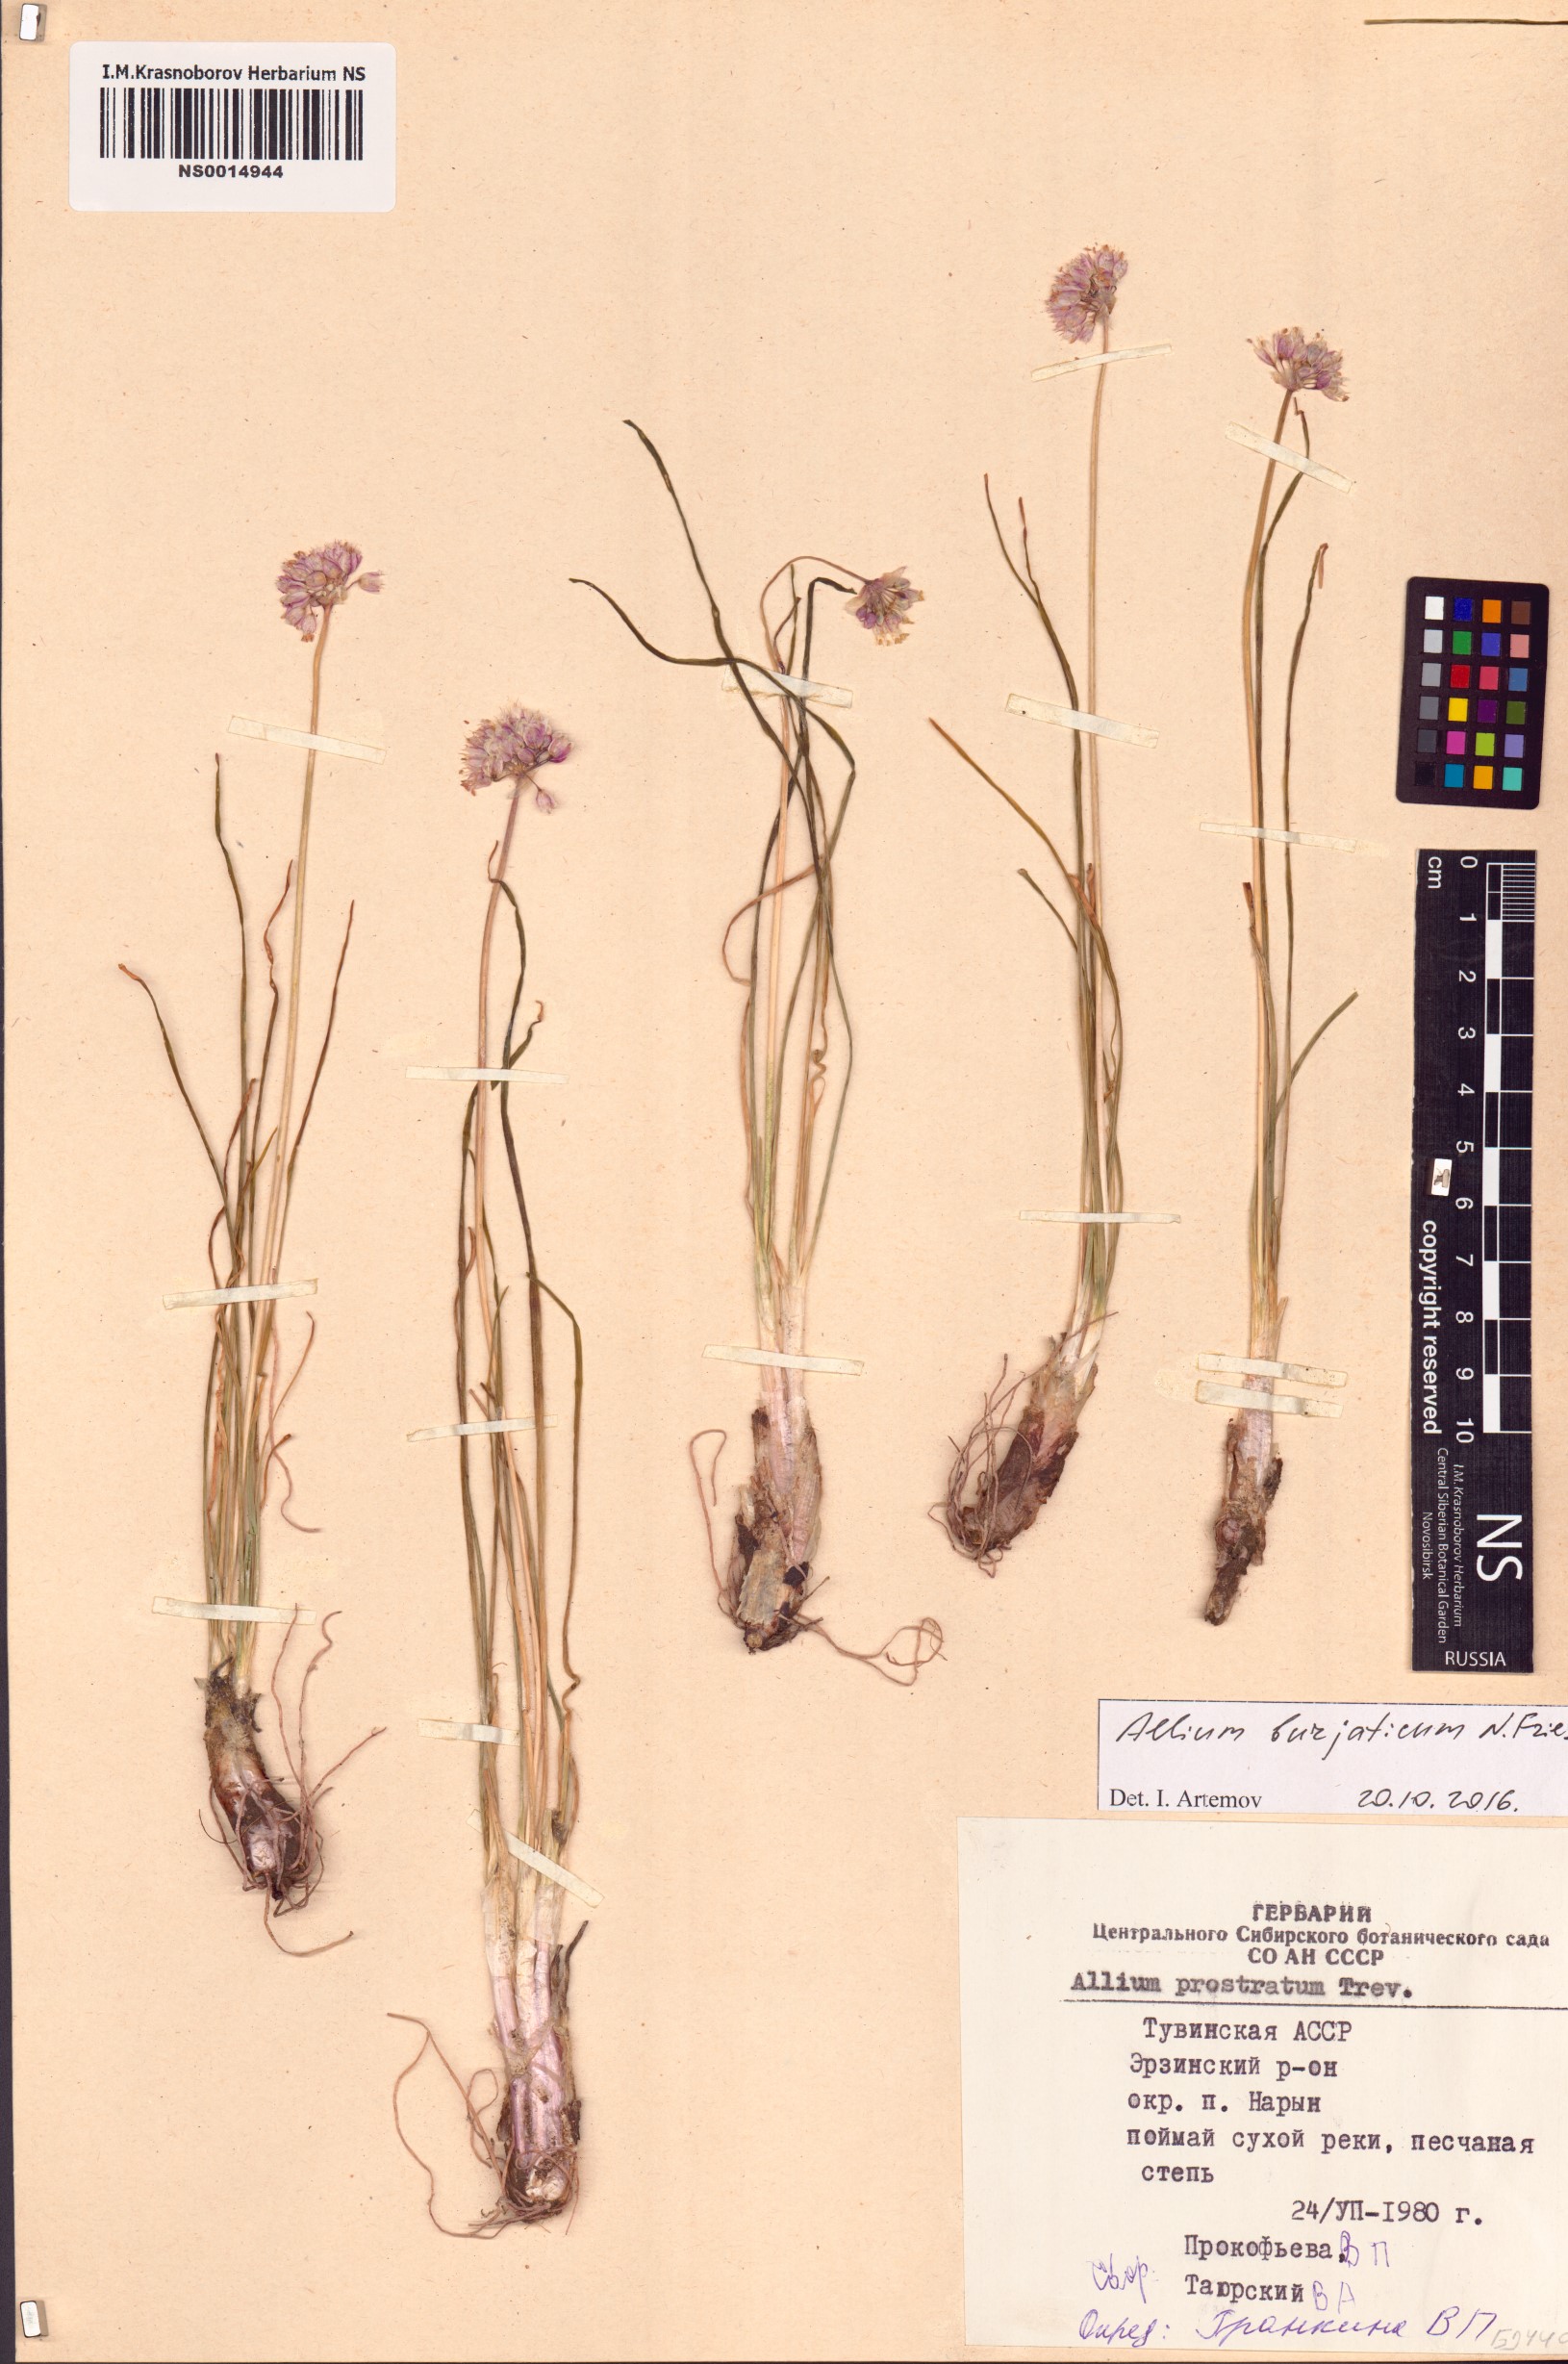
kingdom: Plantae
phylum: Tracheophyta
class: Liliopsida
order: Asparagales
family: Amaryllidaceae
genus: Allium
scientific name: Allium burjaticum
